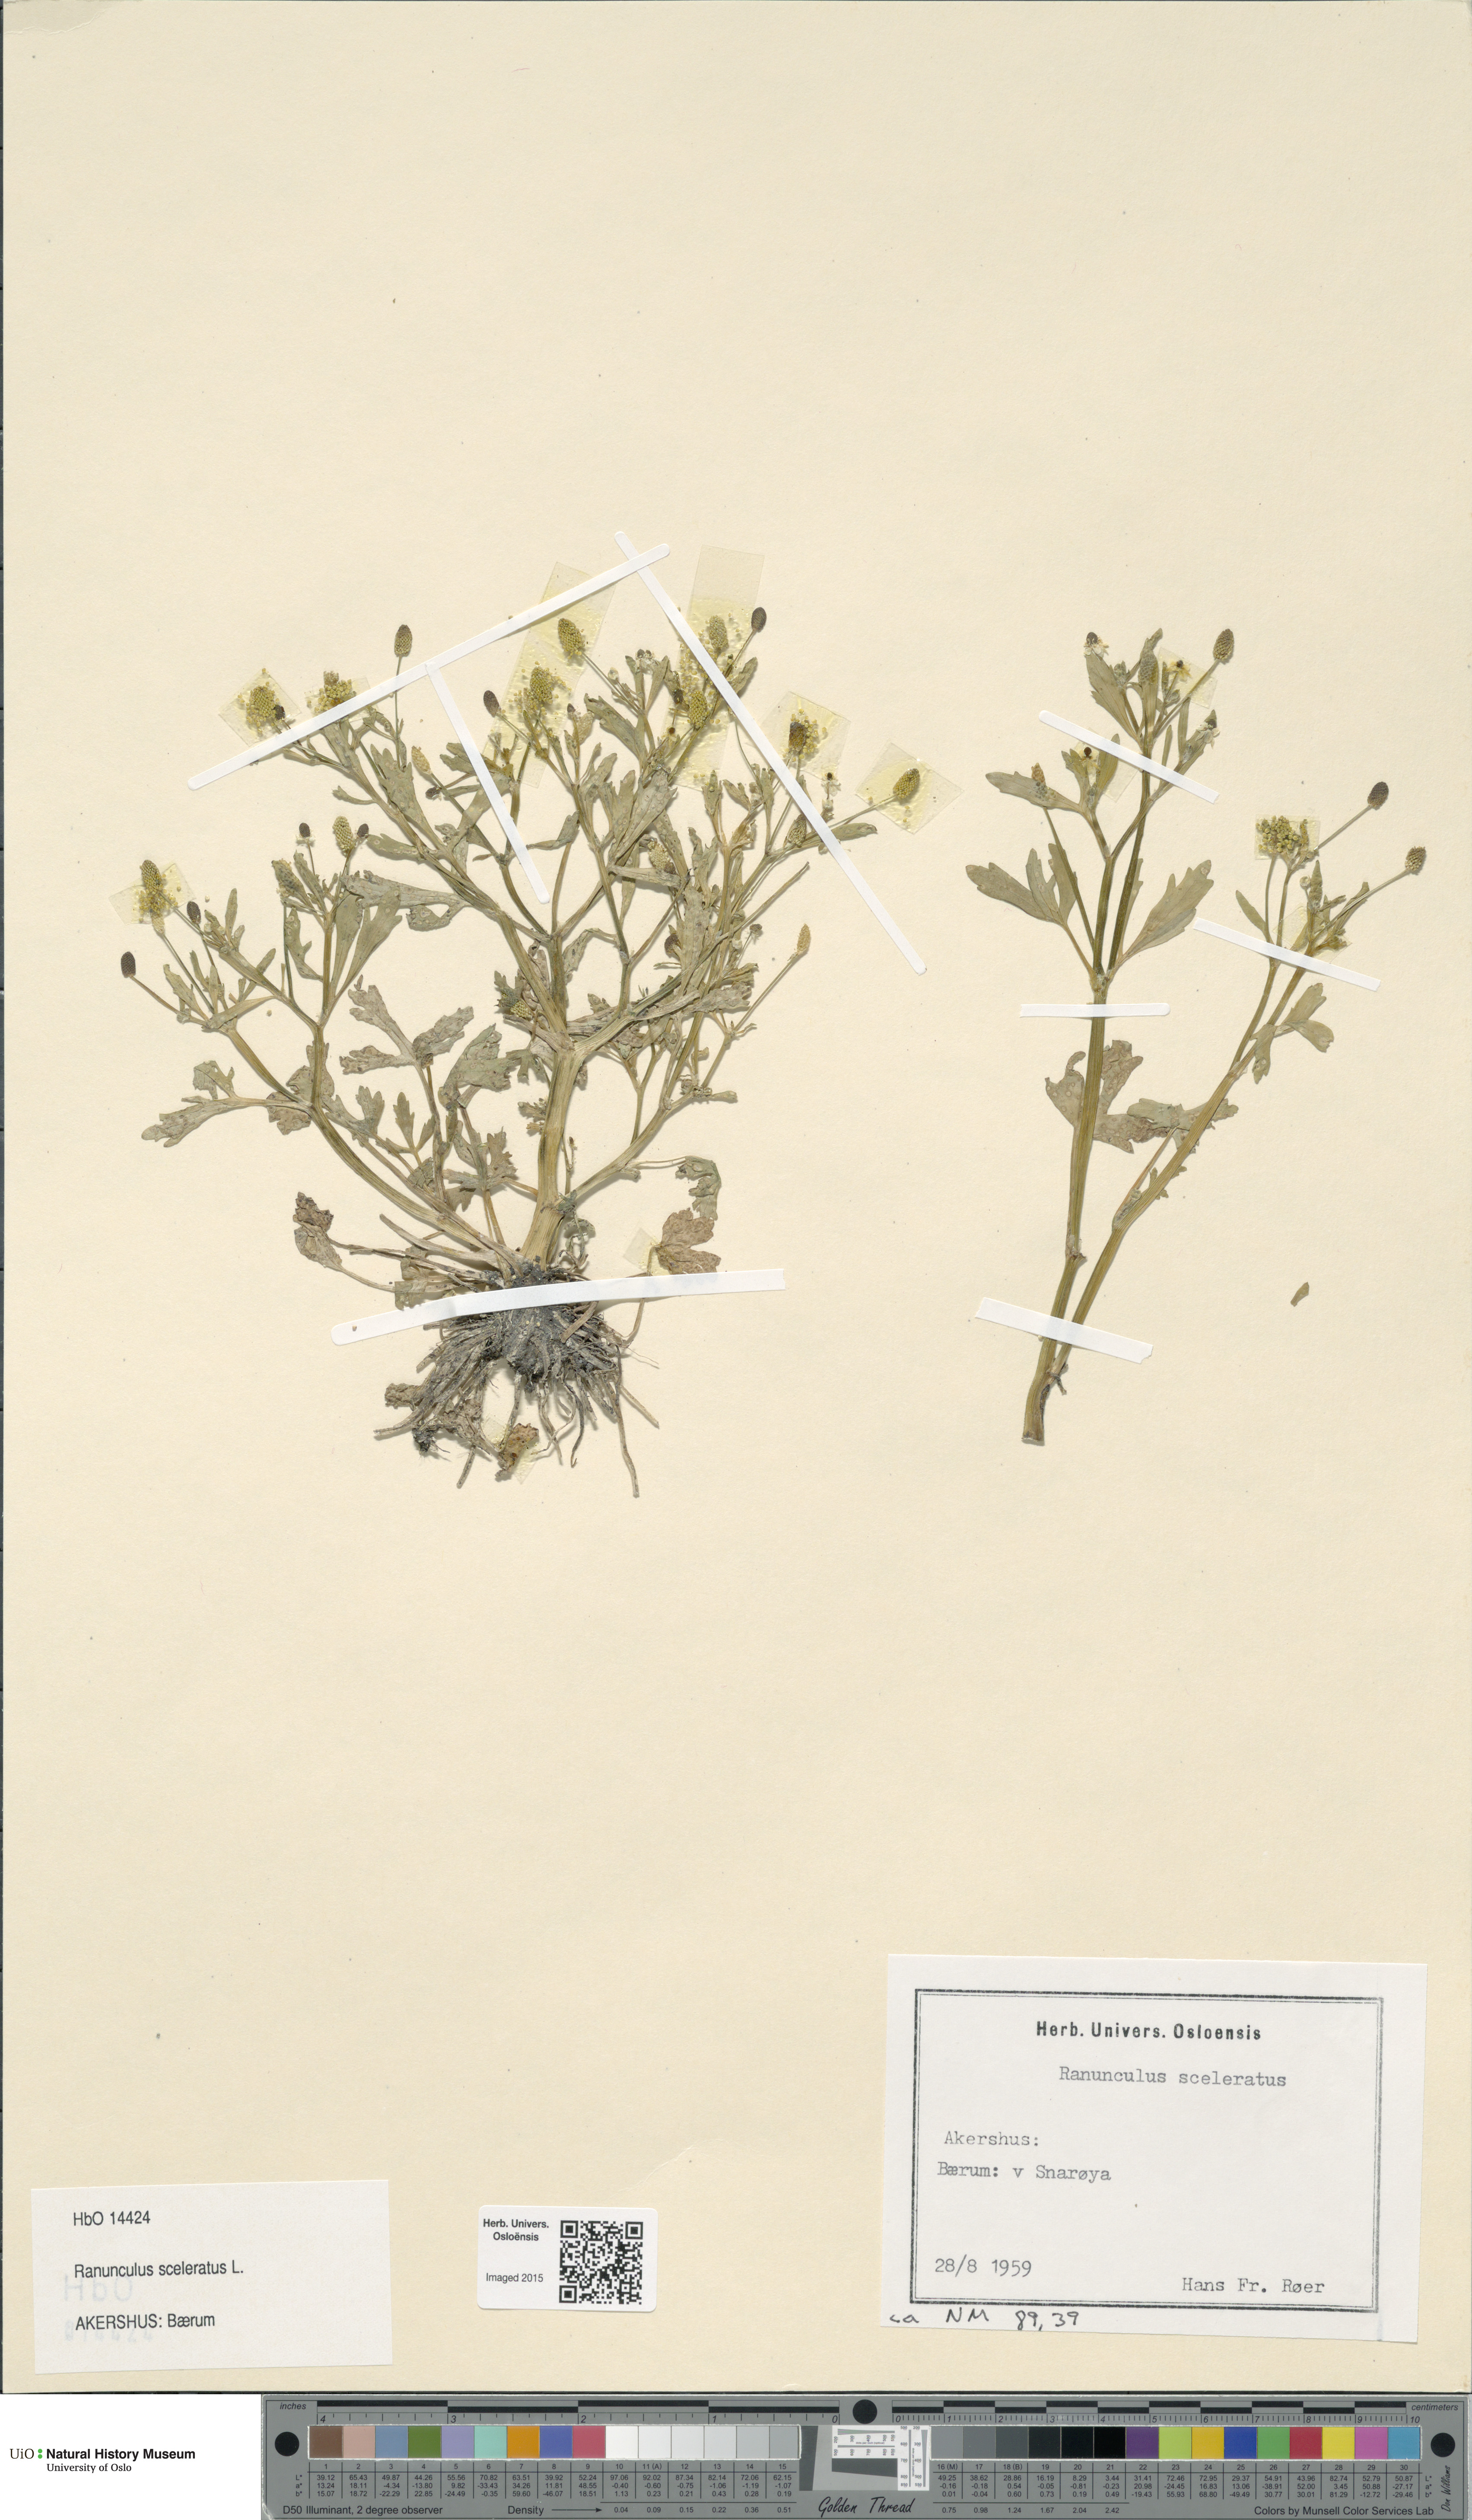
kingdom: Plantae
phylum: Tracheophyta
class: Magnoliopsida
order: Ranunculales
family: Ranunculaceae
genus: Ranunculus
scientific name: Ranunculus sceleratus
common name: Celery-leaved buttercup
